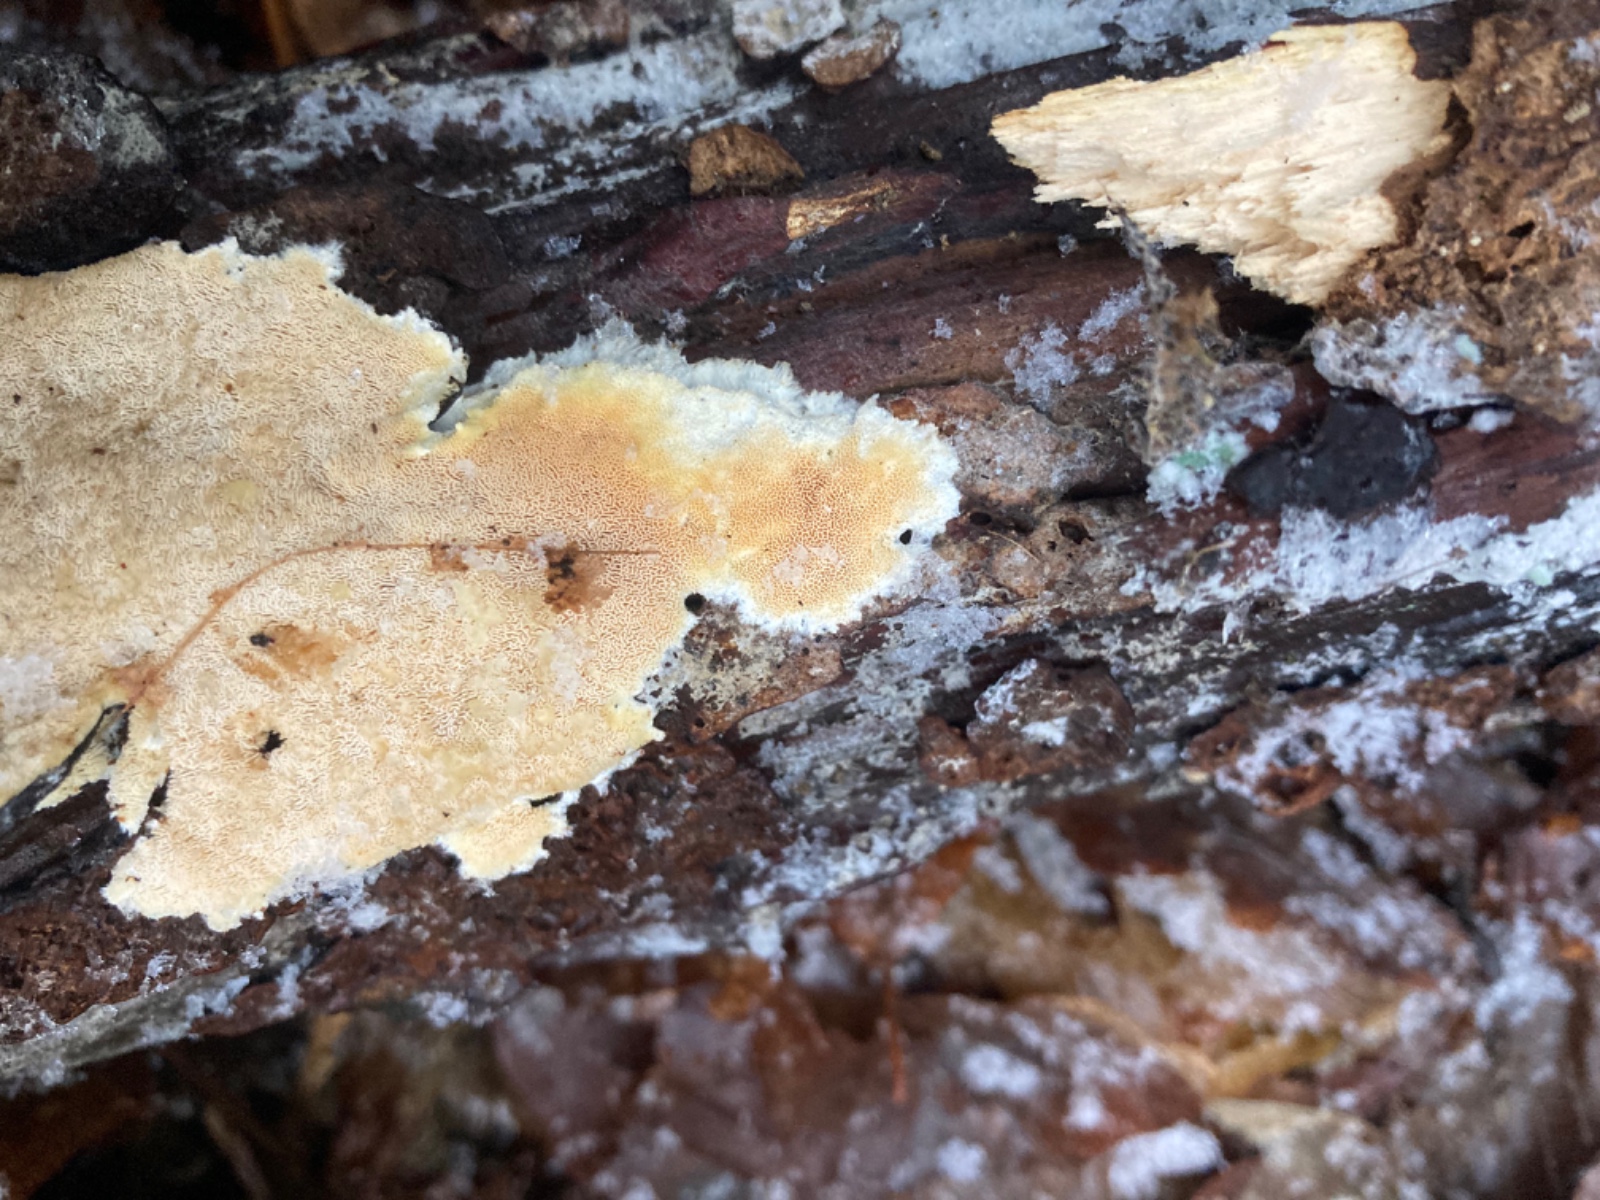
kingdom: Fungi
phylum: Basidiomycota
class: Agaricomycetes
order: Polyporales
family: Steccherinaceae
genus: Steccherinum
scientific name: Steccherinum lacerum
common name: trådet skønporesvamp
